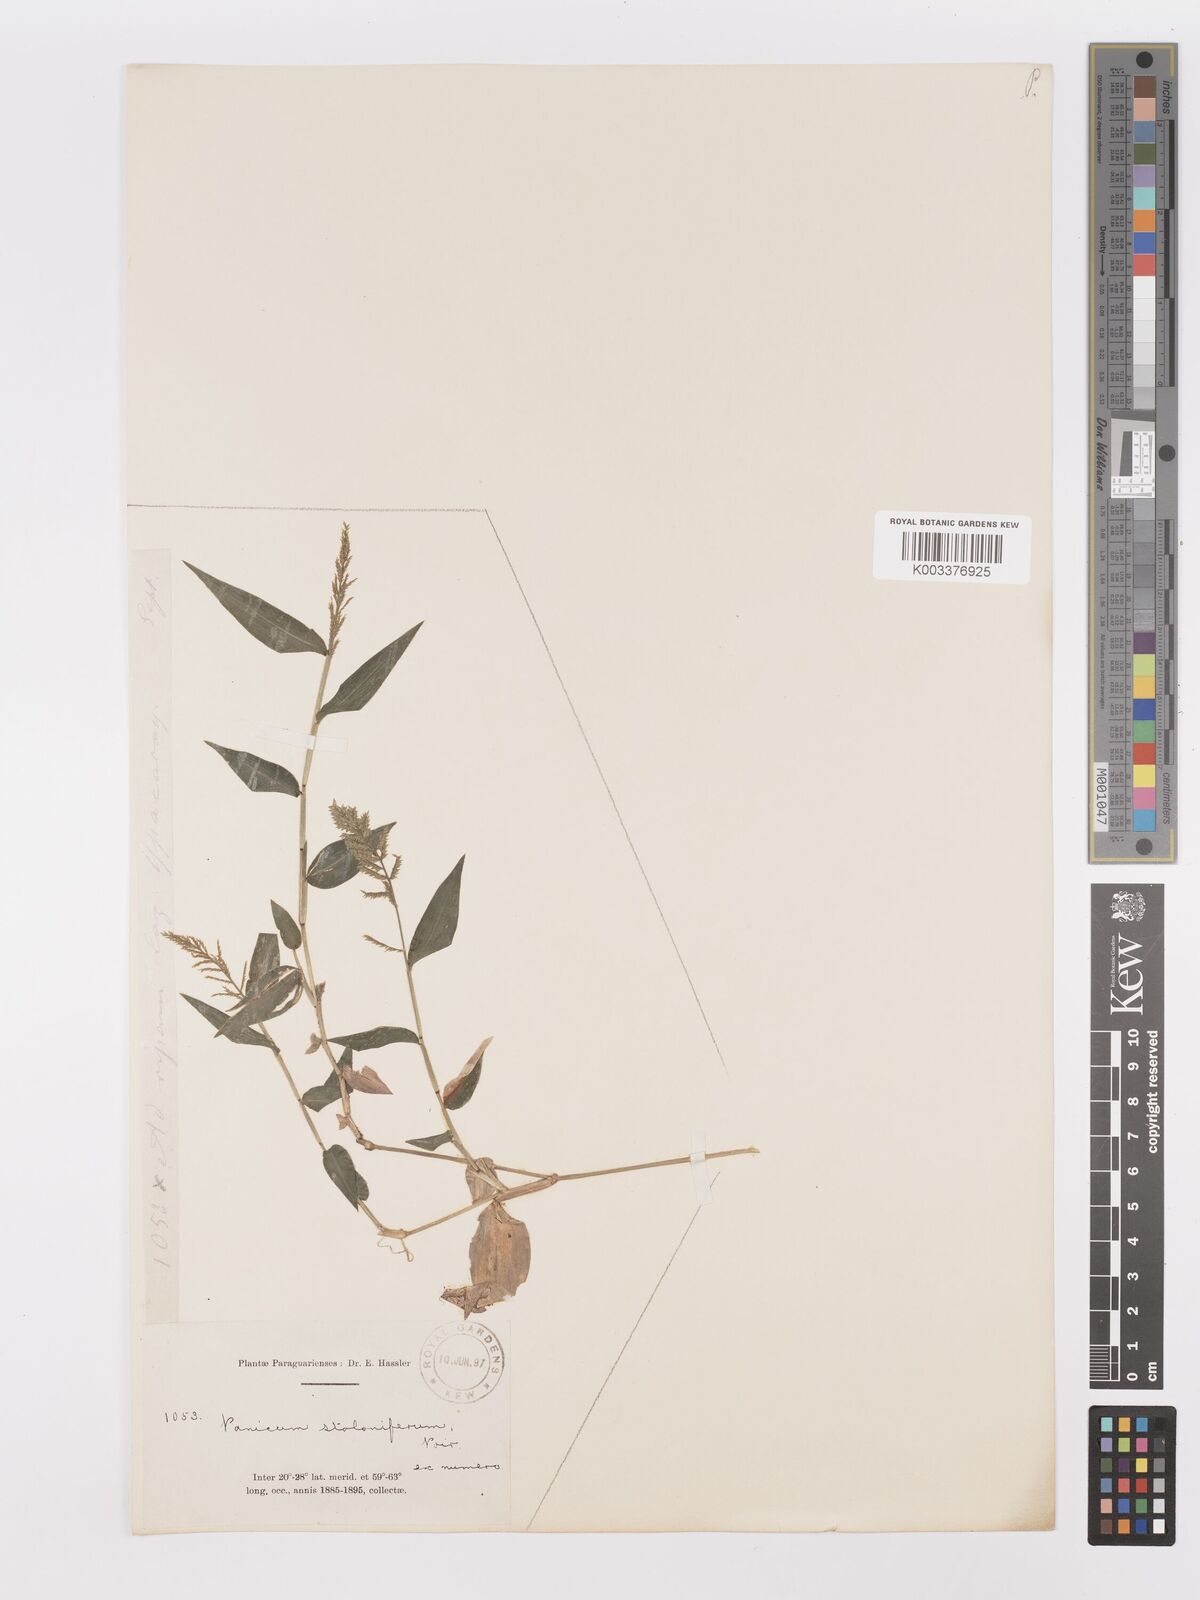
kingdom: Plantae
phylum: Tracheophyta
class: Liliopsida
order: Poales
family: Poaceae
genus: Ocellochloa
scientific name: Ocellochloa stolonifera
